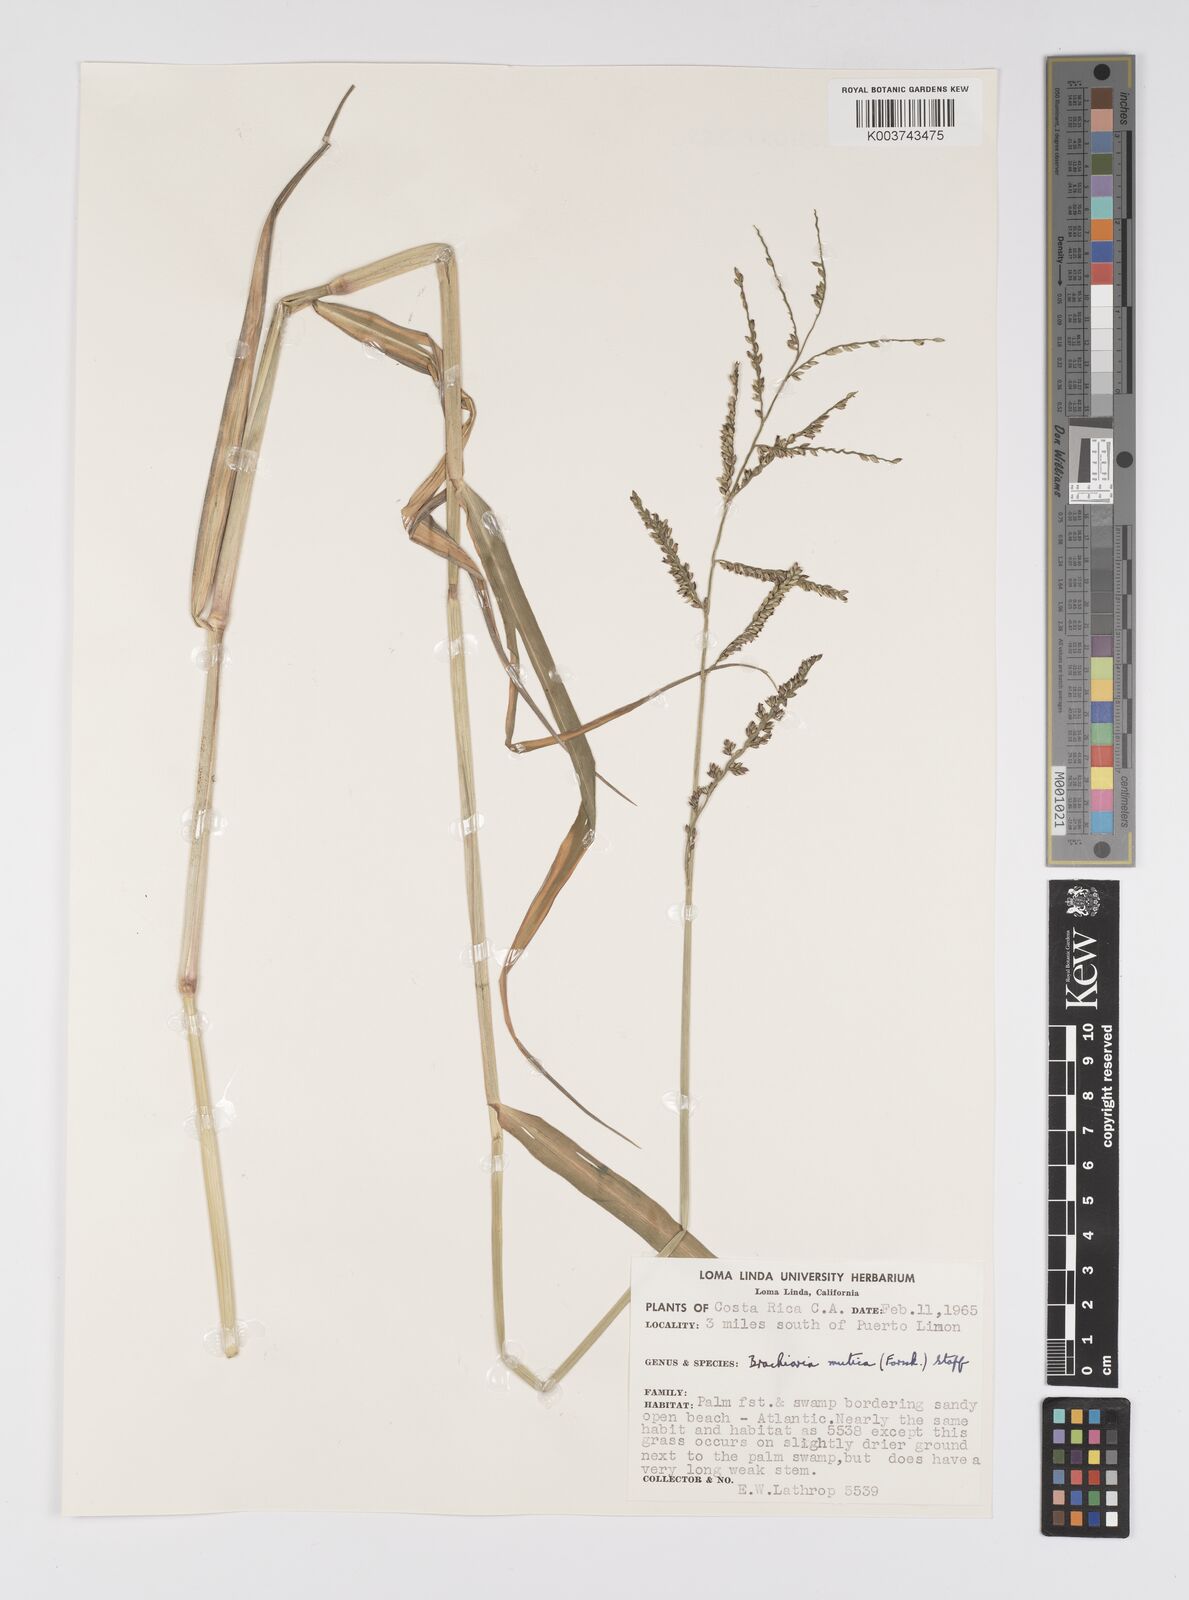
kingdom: Plantae
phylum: Tracheophyta
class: Liliopsida
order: Poales
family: Poaceae
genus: Urochloa
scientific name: Urochloa mutica
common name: Para grass
